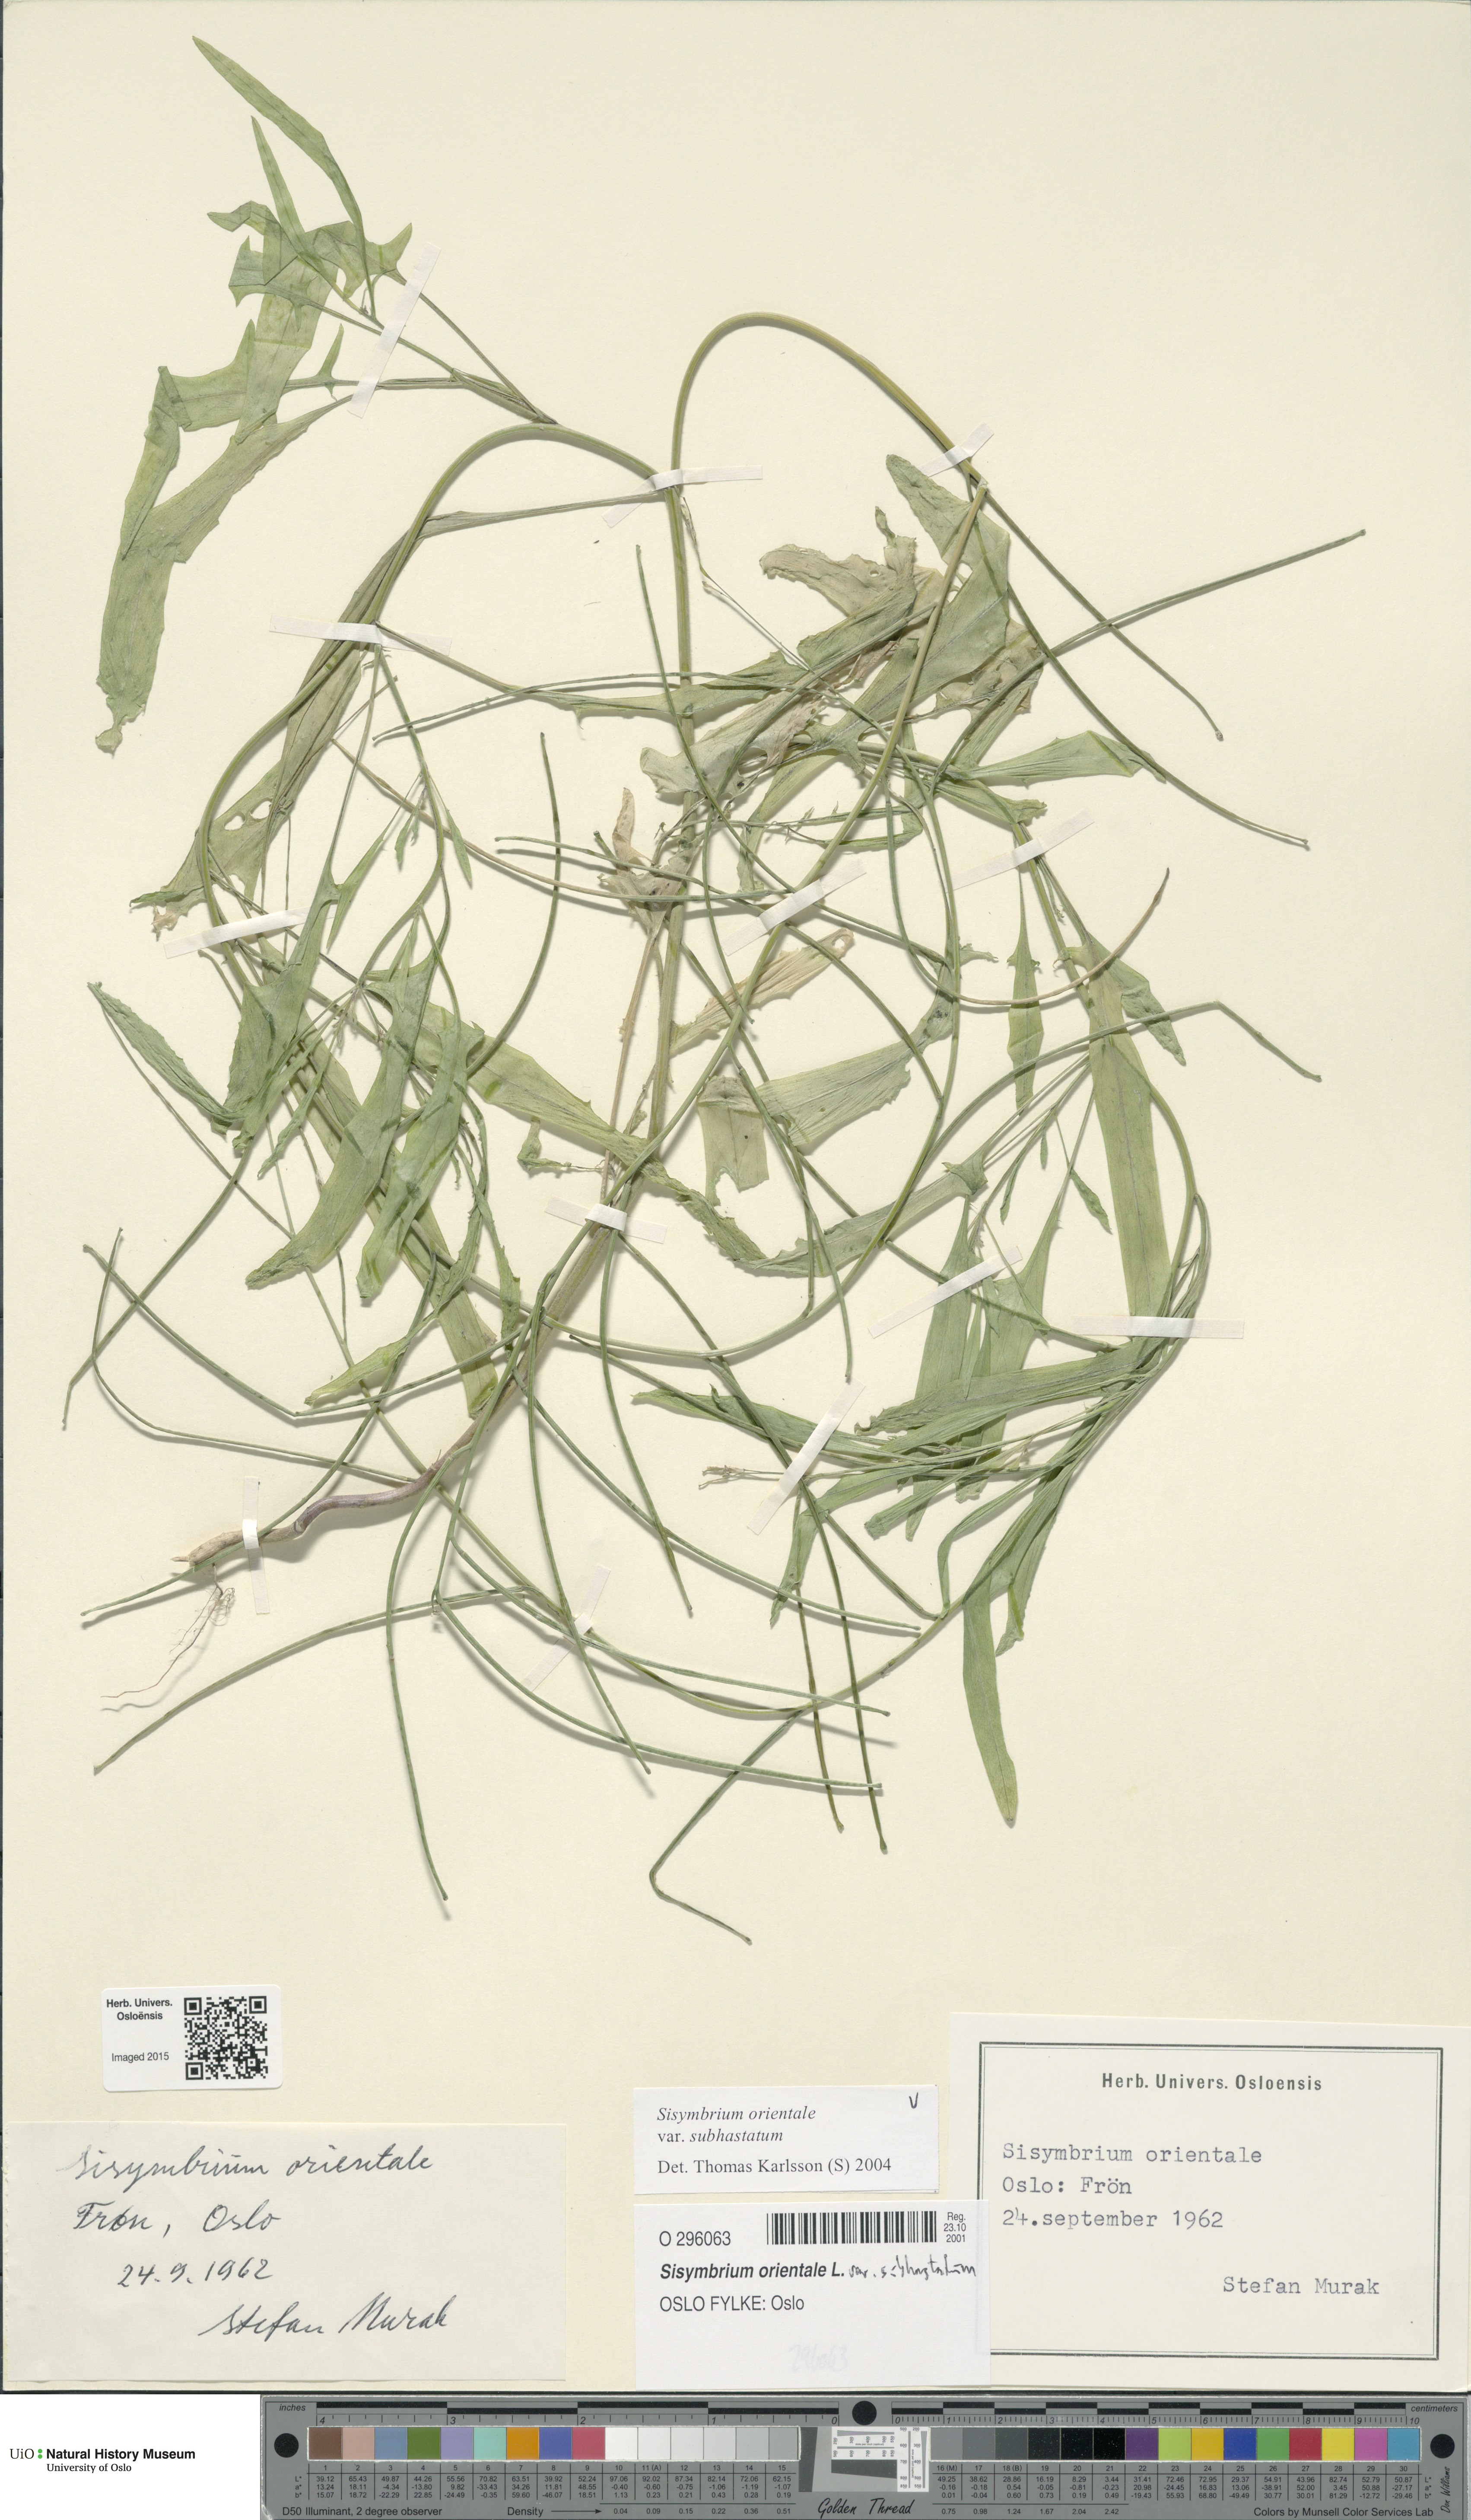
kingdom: Plantae
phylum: Tracheophyta
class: Magnoliopsida
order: Brassicales
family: Brassicaceae
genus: Sisymbrium
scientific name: Sisymbrium orientale
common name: Eastern rocket
